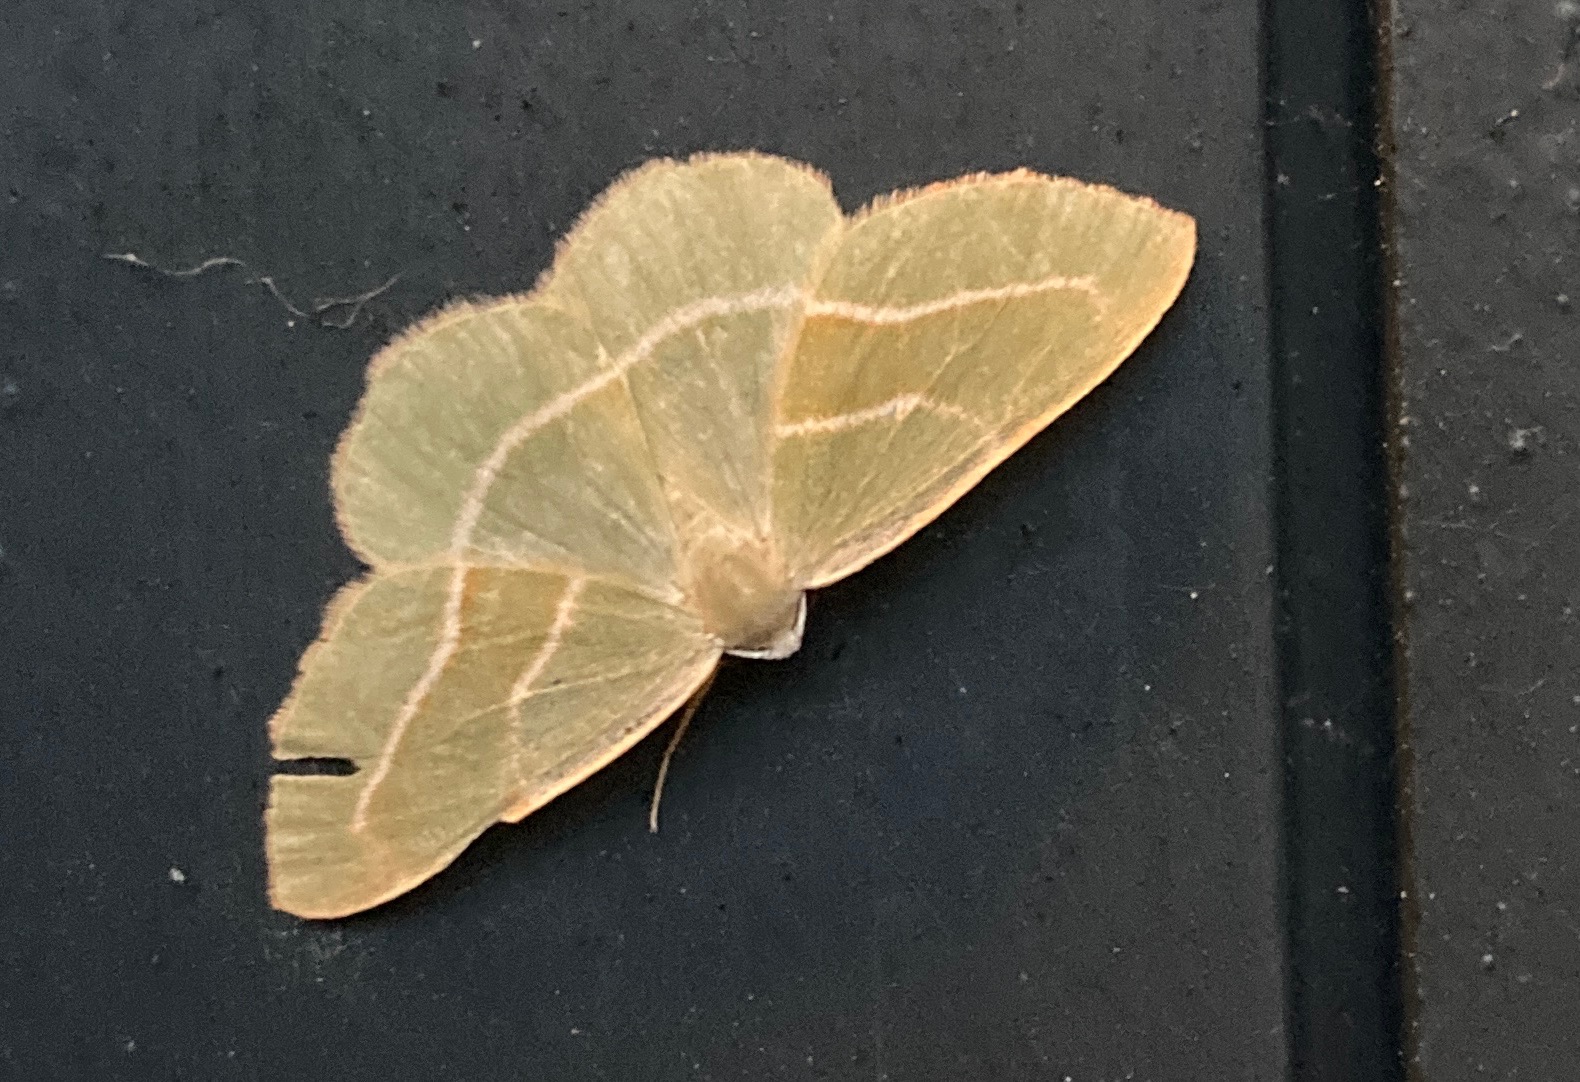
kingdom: Animalia
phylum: Arthropoda
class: Insecta
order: Lepidoptera
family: Geometridae
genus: Hylaea
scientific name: Hylaea fasciaria
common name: Nåleskovs-måler
